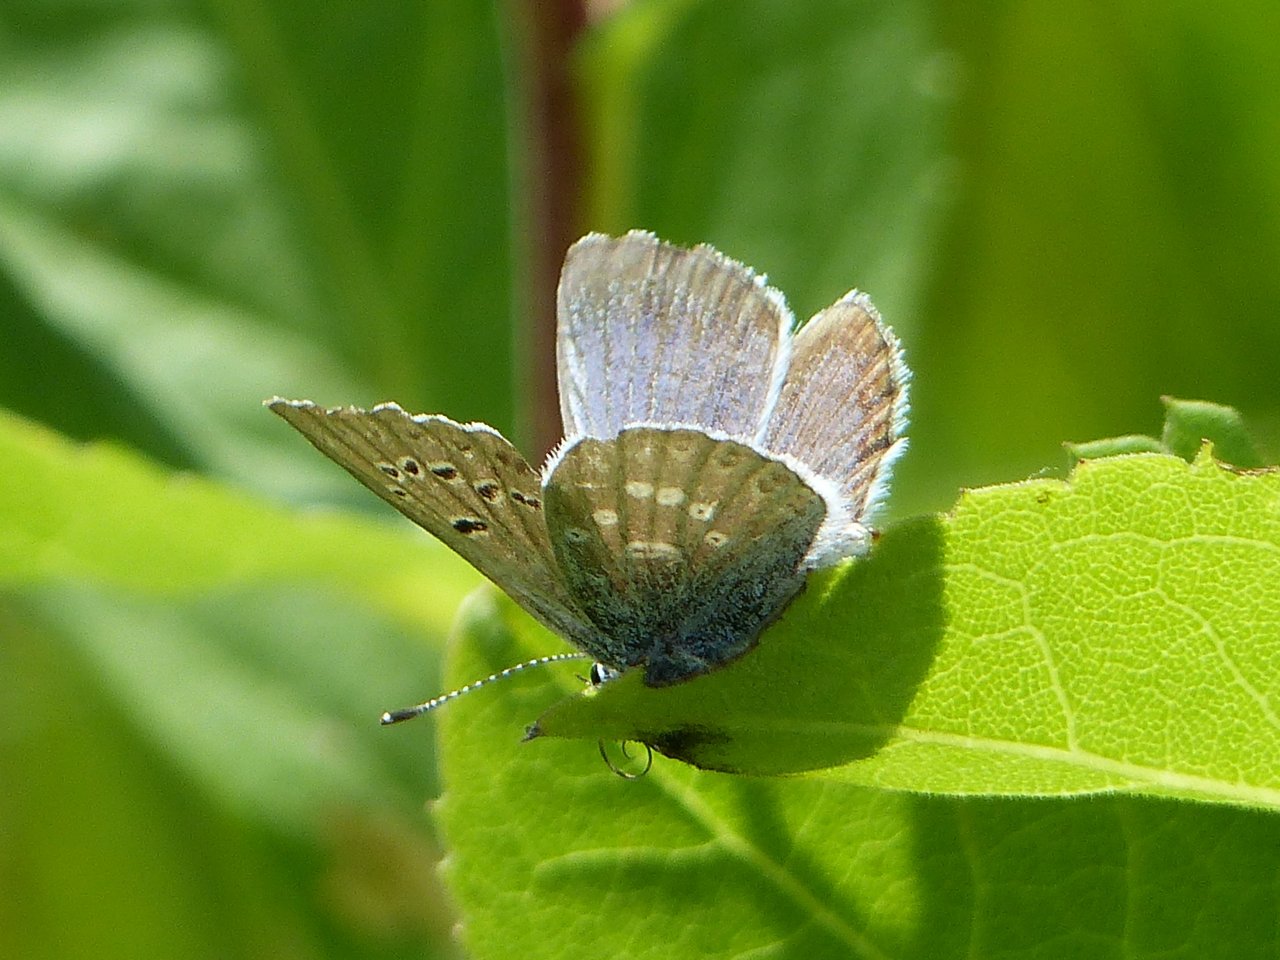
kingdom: Animalia
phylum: Arthropoda
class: Insecta
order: Lepidoptera
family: Lycaenidae
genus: Icaricia
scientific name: Icaricia icarioides
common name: Boisduval's Blue
